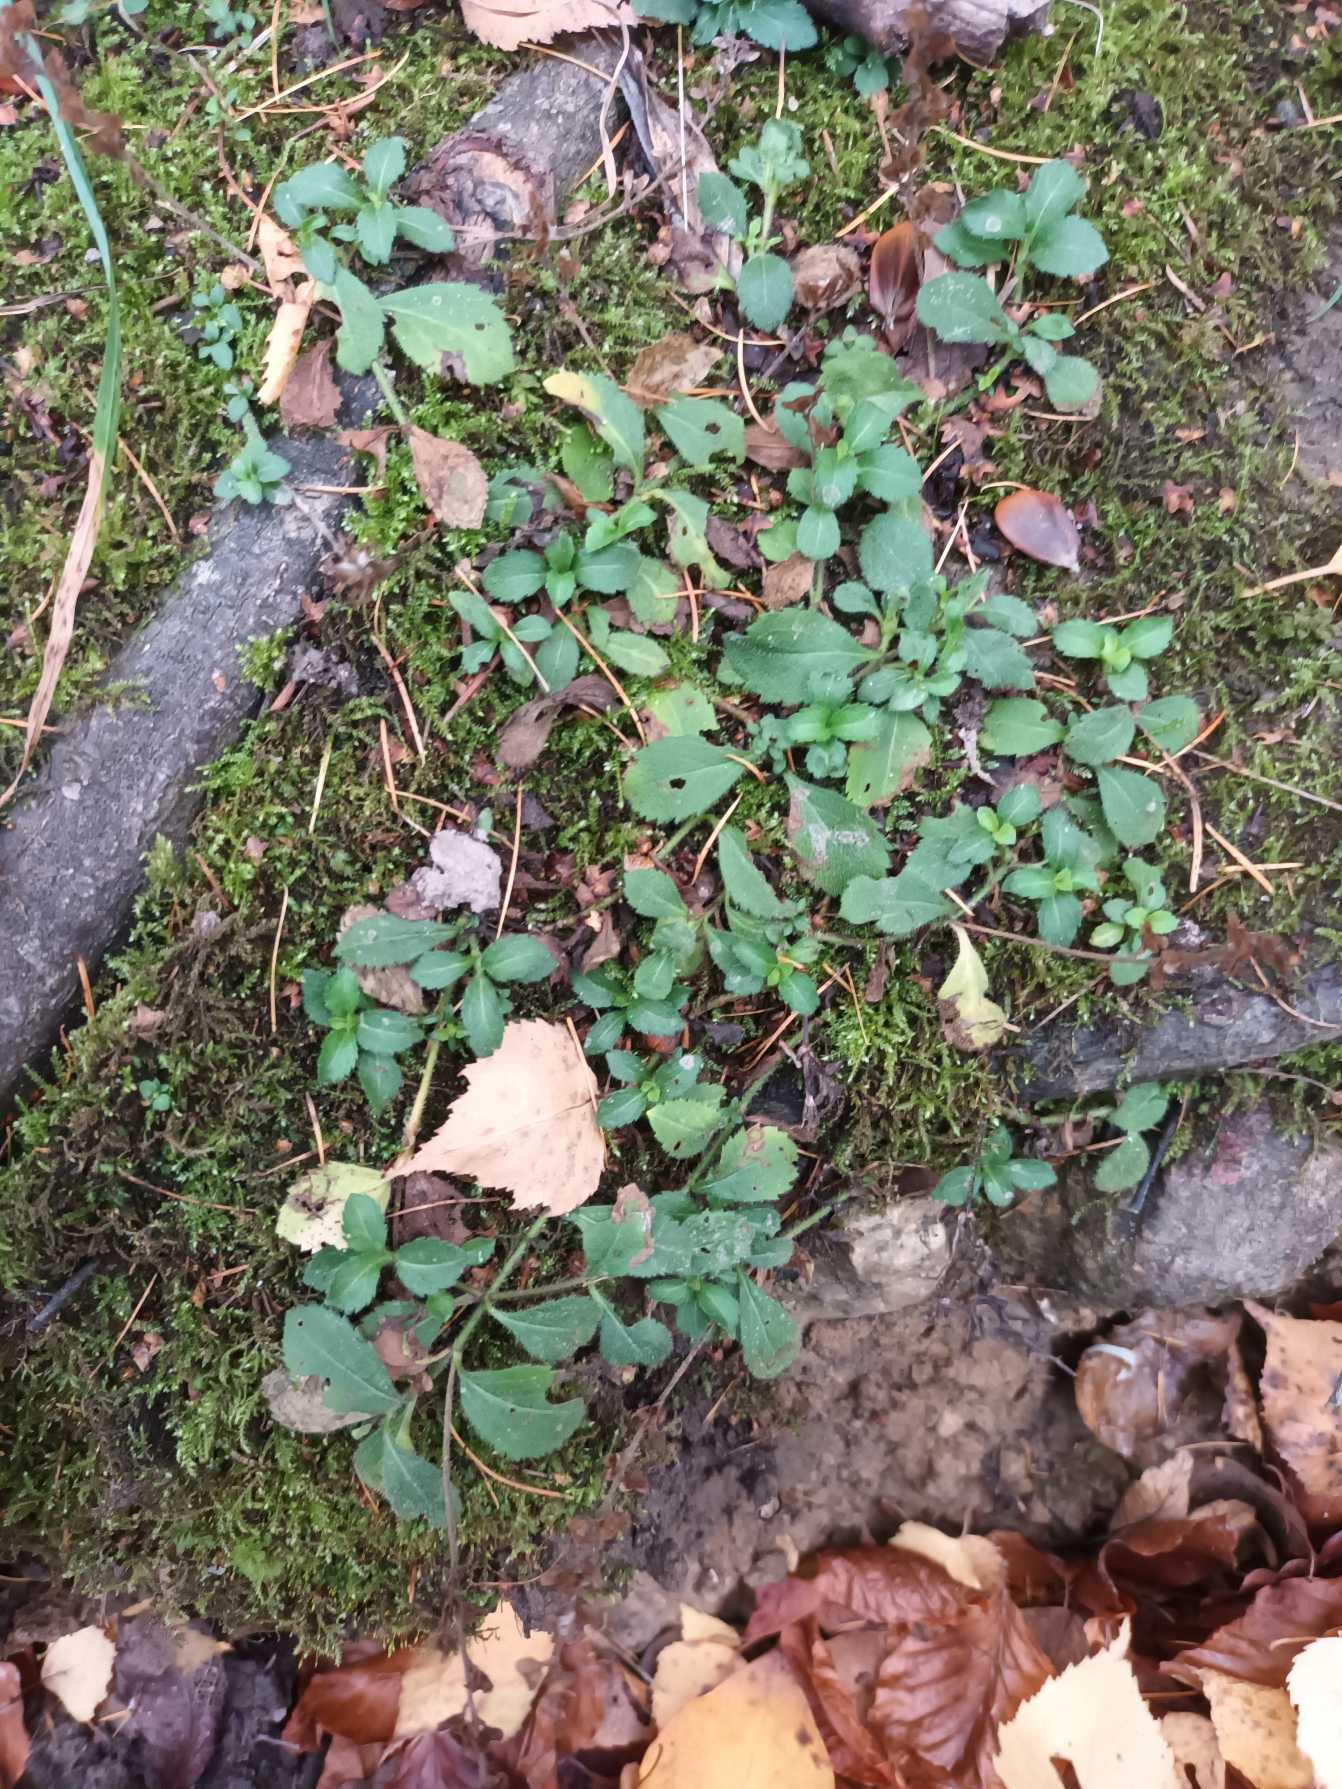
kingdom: Plantae
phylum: Tracheophyta
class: Magnoliopsida
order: Lamiales
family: Plantaginaceae
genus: Veronica
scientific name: Veronica officinalis
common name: Læge-ærenpris
